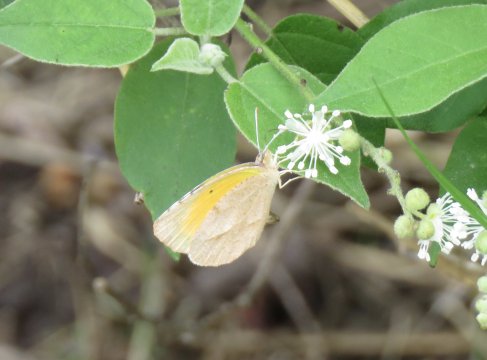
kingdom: Animalia
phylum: Arthropoda
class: Insecta
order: Lepidoptera
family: Pieridae
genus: Abaeis
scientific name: Abaeis nicippe
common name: Sleepy Orange
